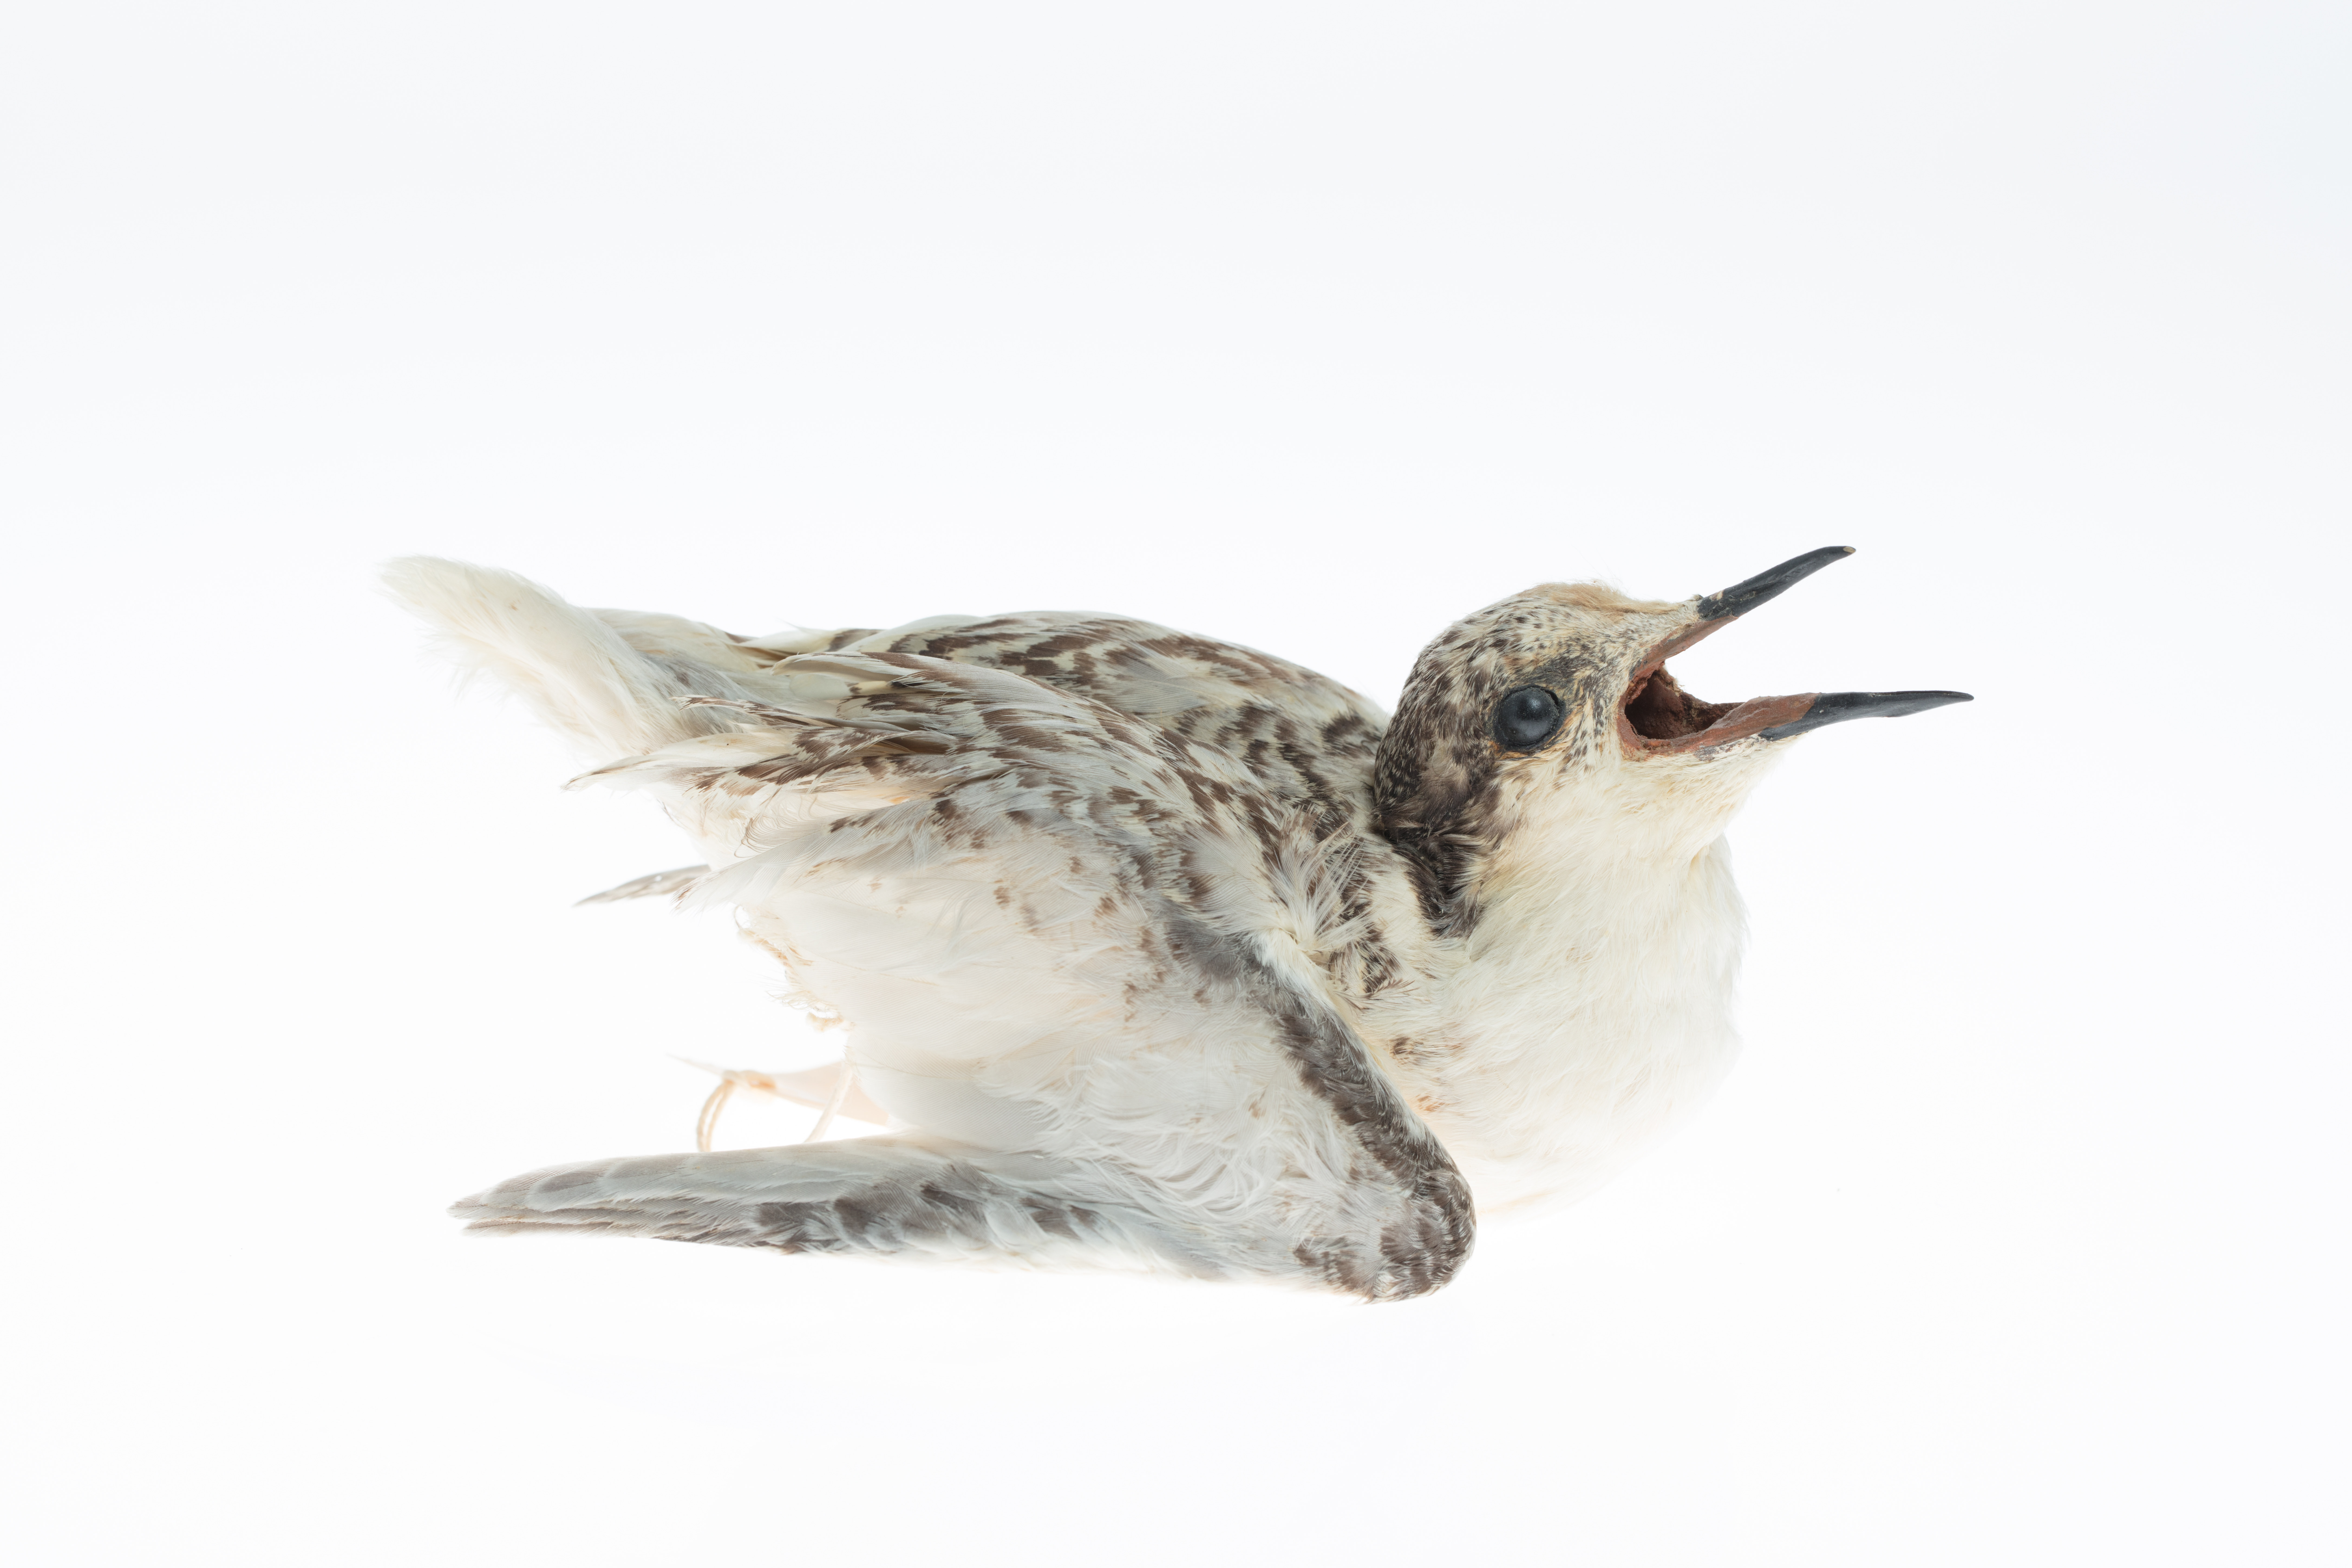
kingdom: Animalia
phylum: Chordata
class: Aves
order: Charadriiformes
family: Laridae
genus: Sterna
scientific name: Sterna striata
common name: White-fronted tern
